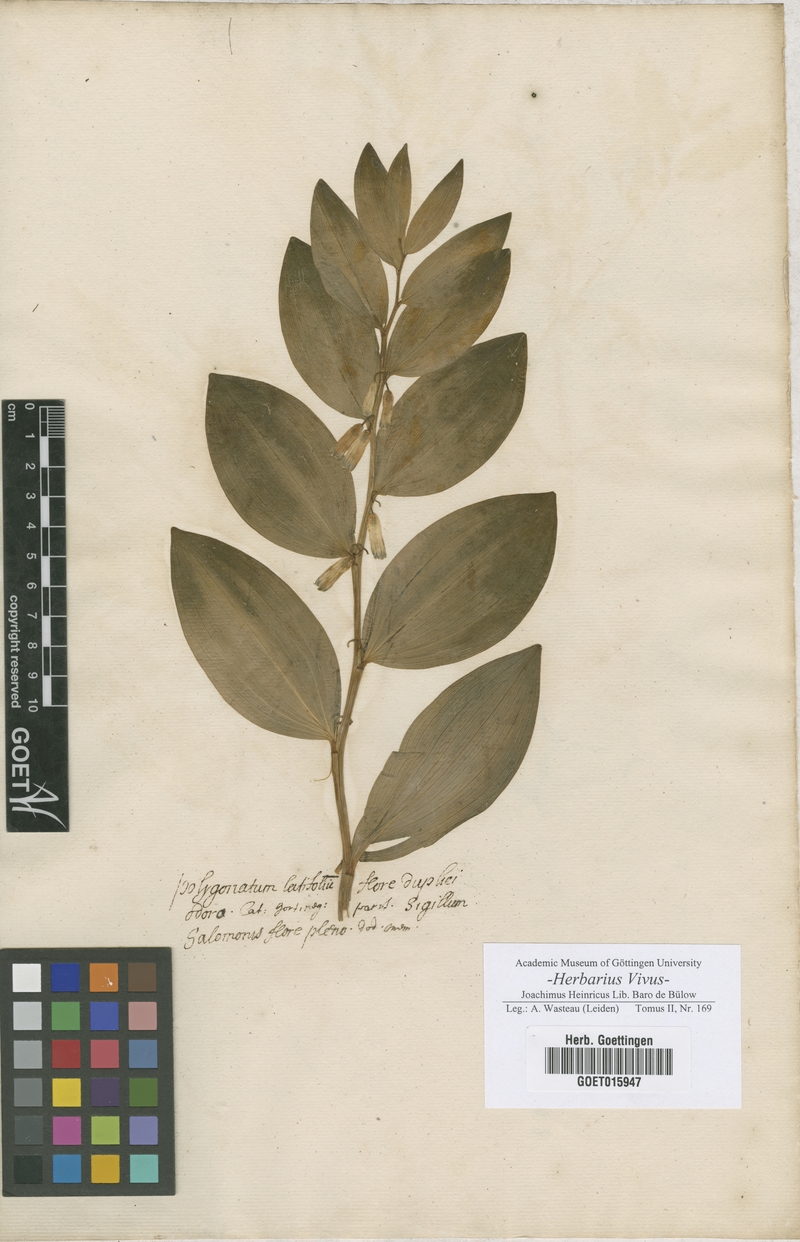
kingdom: Plantae
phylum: Tracheophyta
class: Liliopsida
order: Asparagales
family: Asparagaceae
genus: Polygonatum
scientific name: Polygonatum
